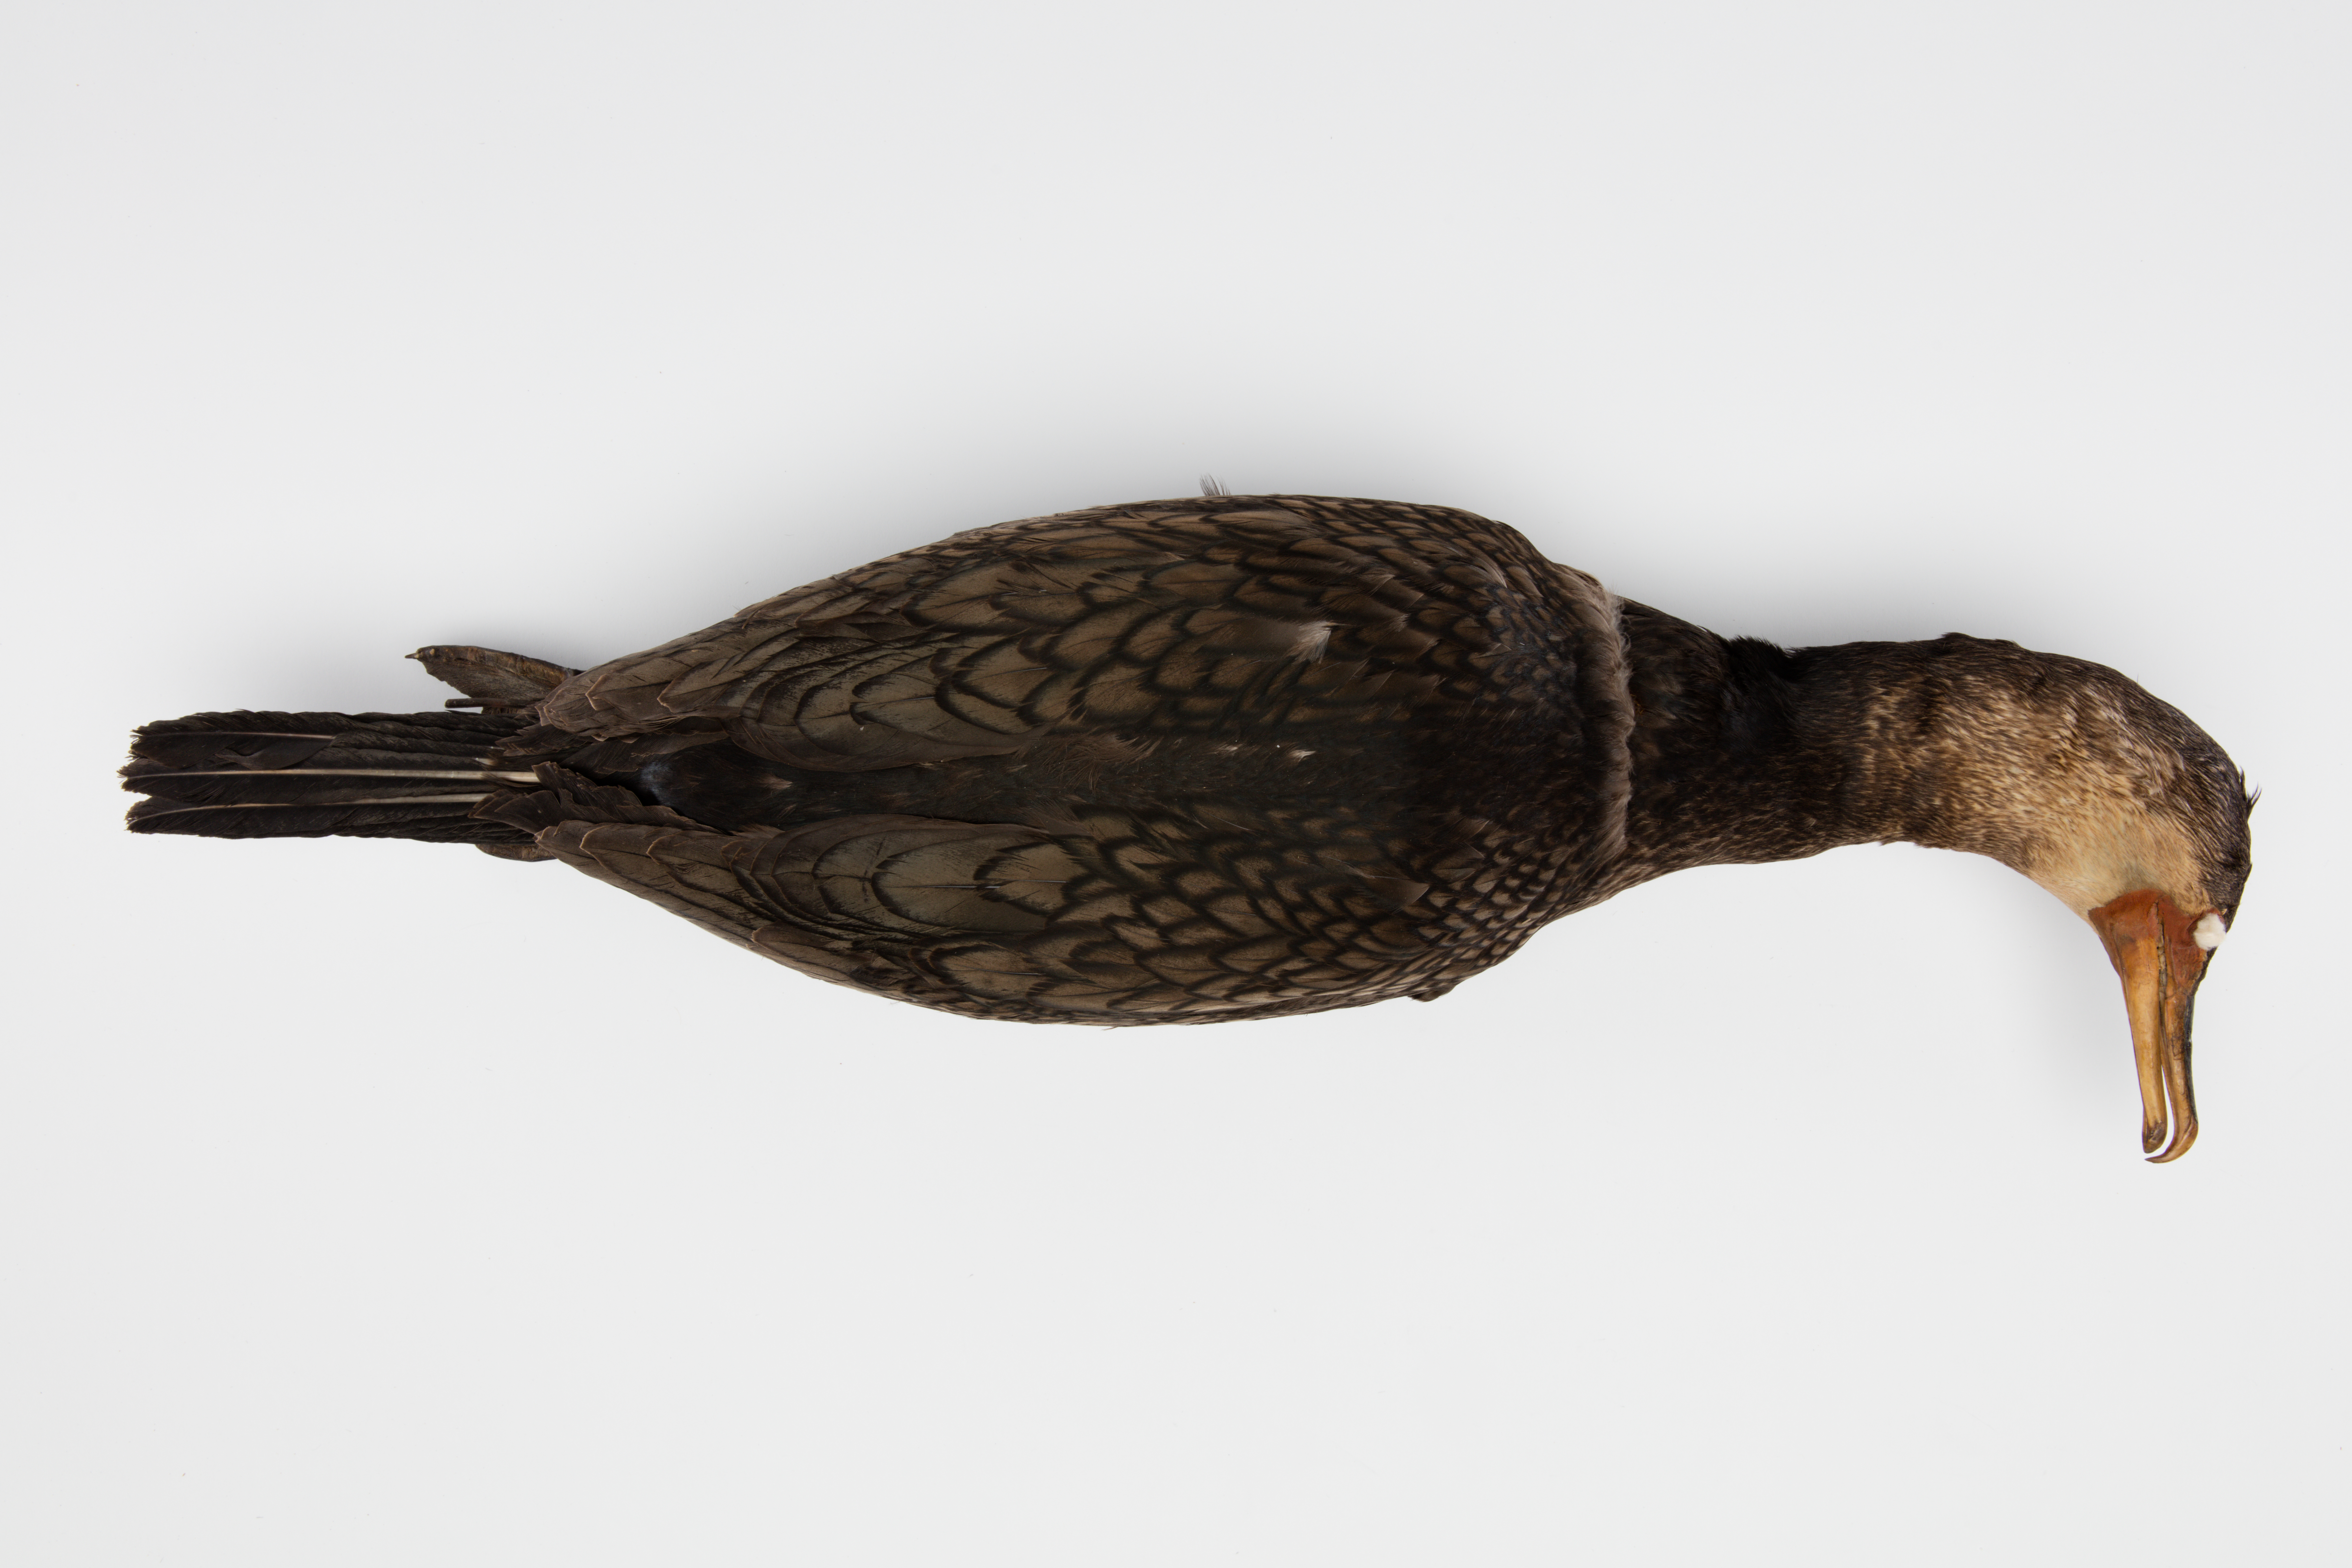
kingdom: Animalia
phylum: Chordata
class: Aves
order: Suliformes
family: Phalacrocoracidae
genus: Phalacrocorax
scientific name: Phalacrocorax carbo
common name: Great cormorant
